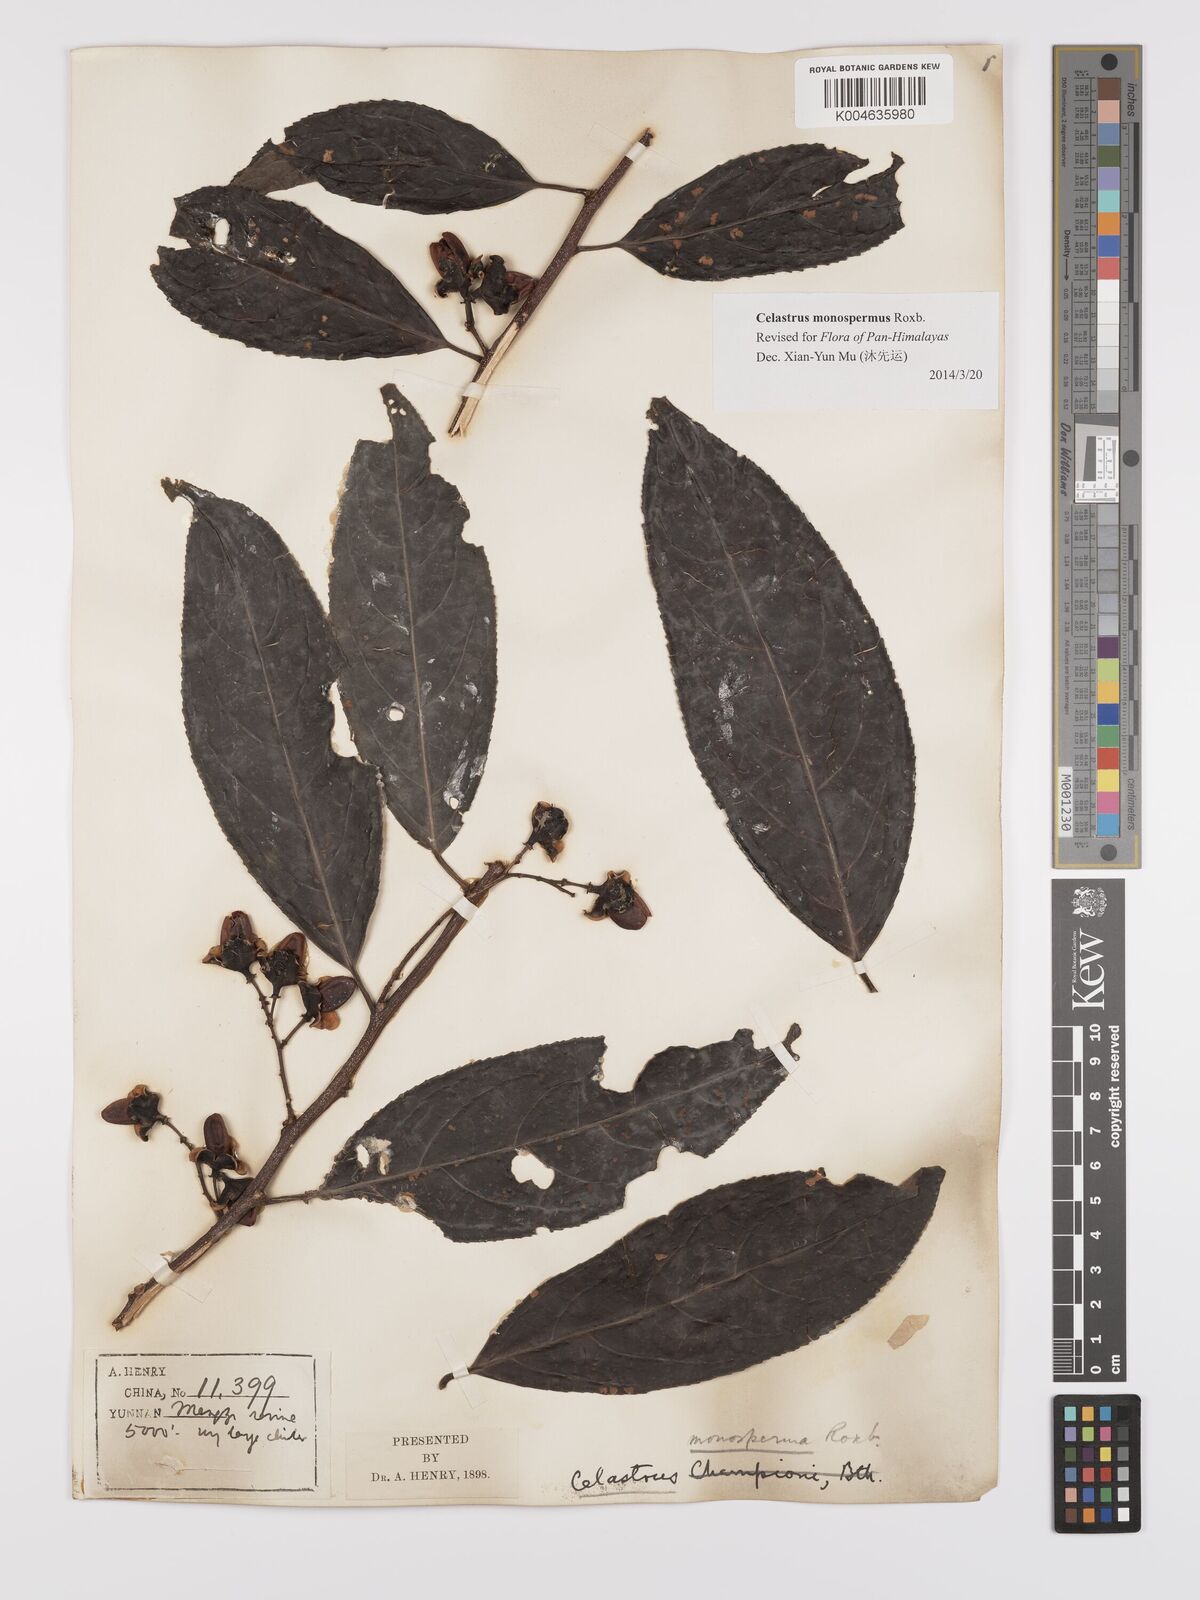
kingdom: Plantae
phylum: Tracheophyta
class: Magnoliopsida
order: Celastrales
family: Celastraceae
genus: Celastrus
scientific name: Celastrus monospermus
